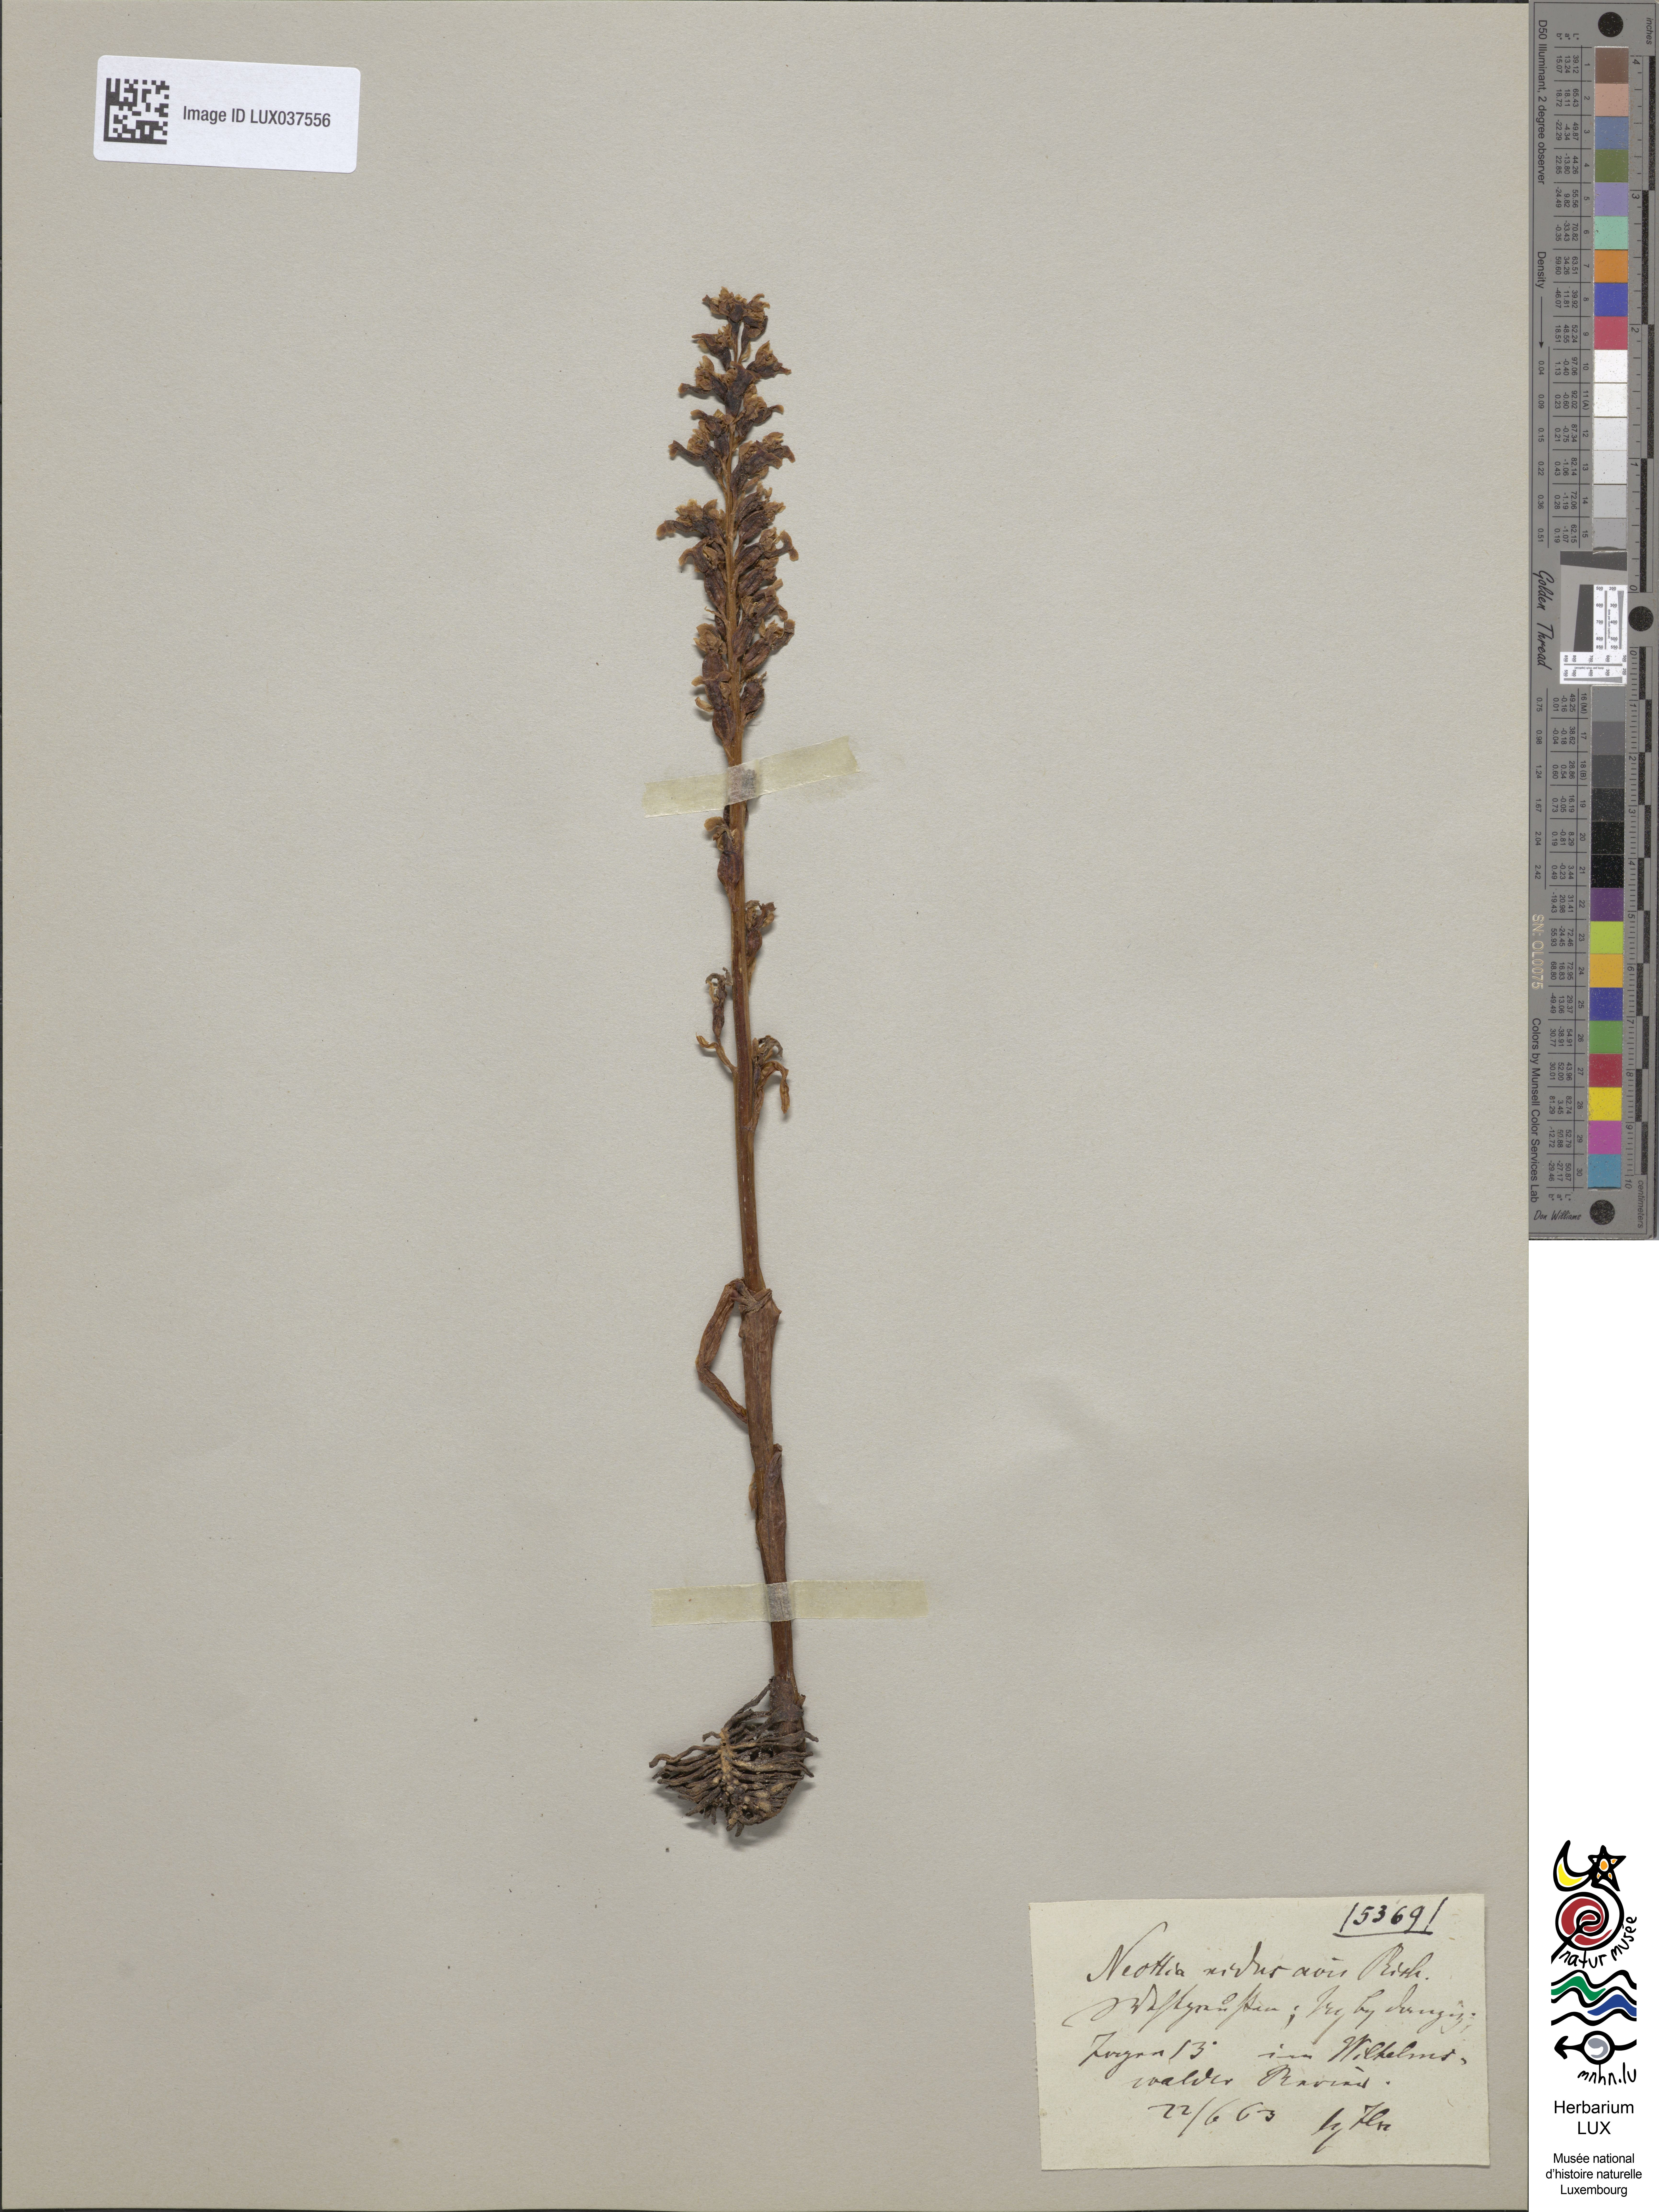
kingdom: Plantae
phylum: Tracheophyta
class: Liliopsida
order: Asparagales
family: Orchidaceae
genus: Neottia
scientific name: Neottia nidus-avis
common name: Bird's-nest orchid
